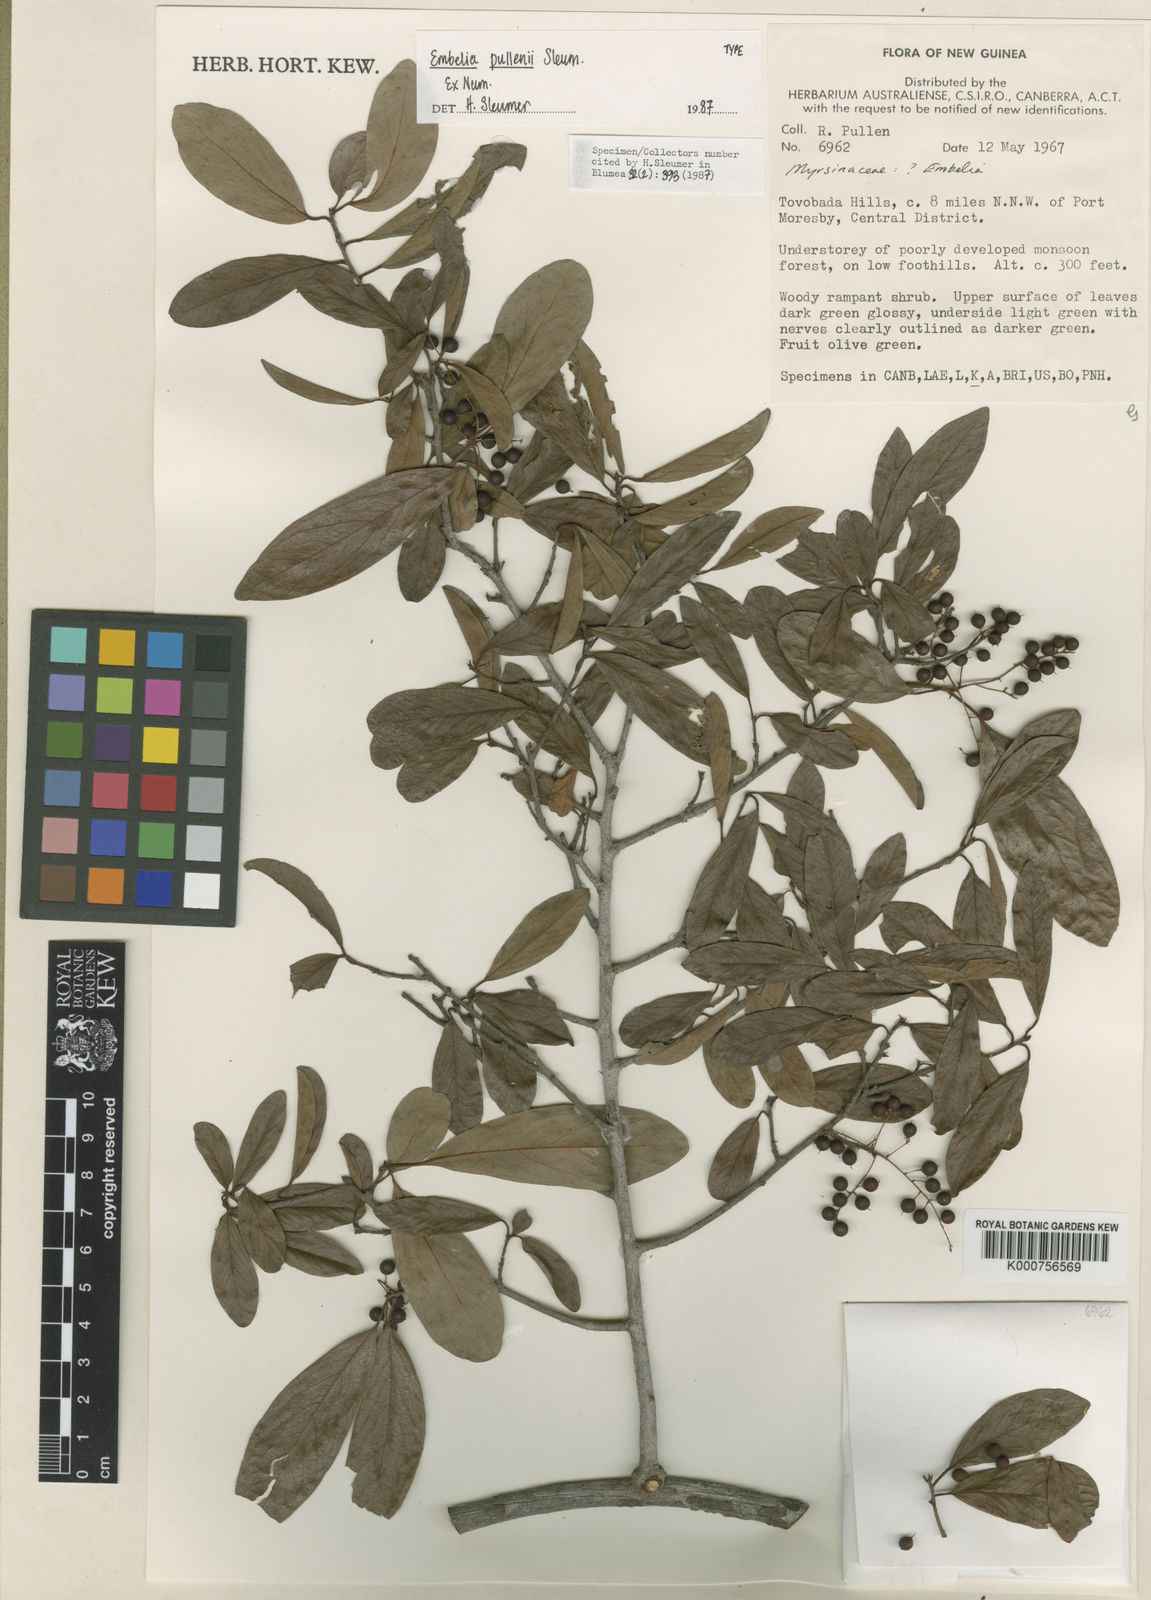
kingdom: Plantae
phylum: Tracheophyta
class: Magnoliopsida
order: Ericales
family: Primulaceae
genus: Embelia
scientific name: Embelia pullenii
